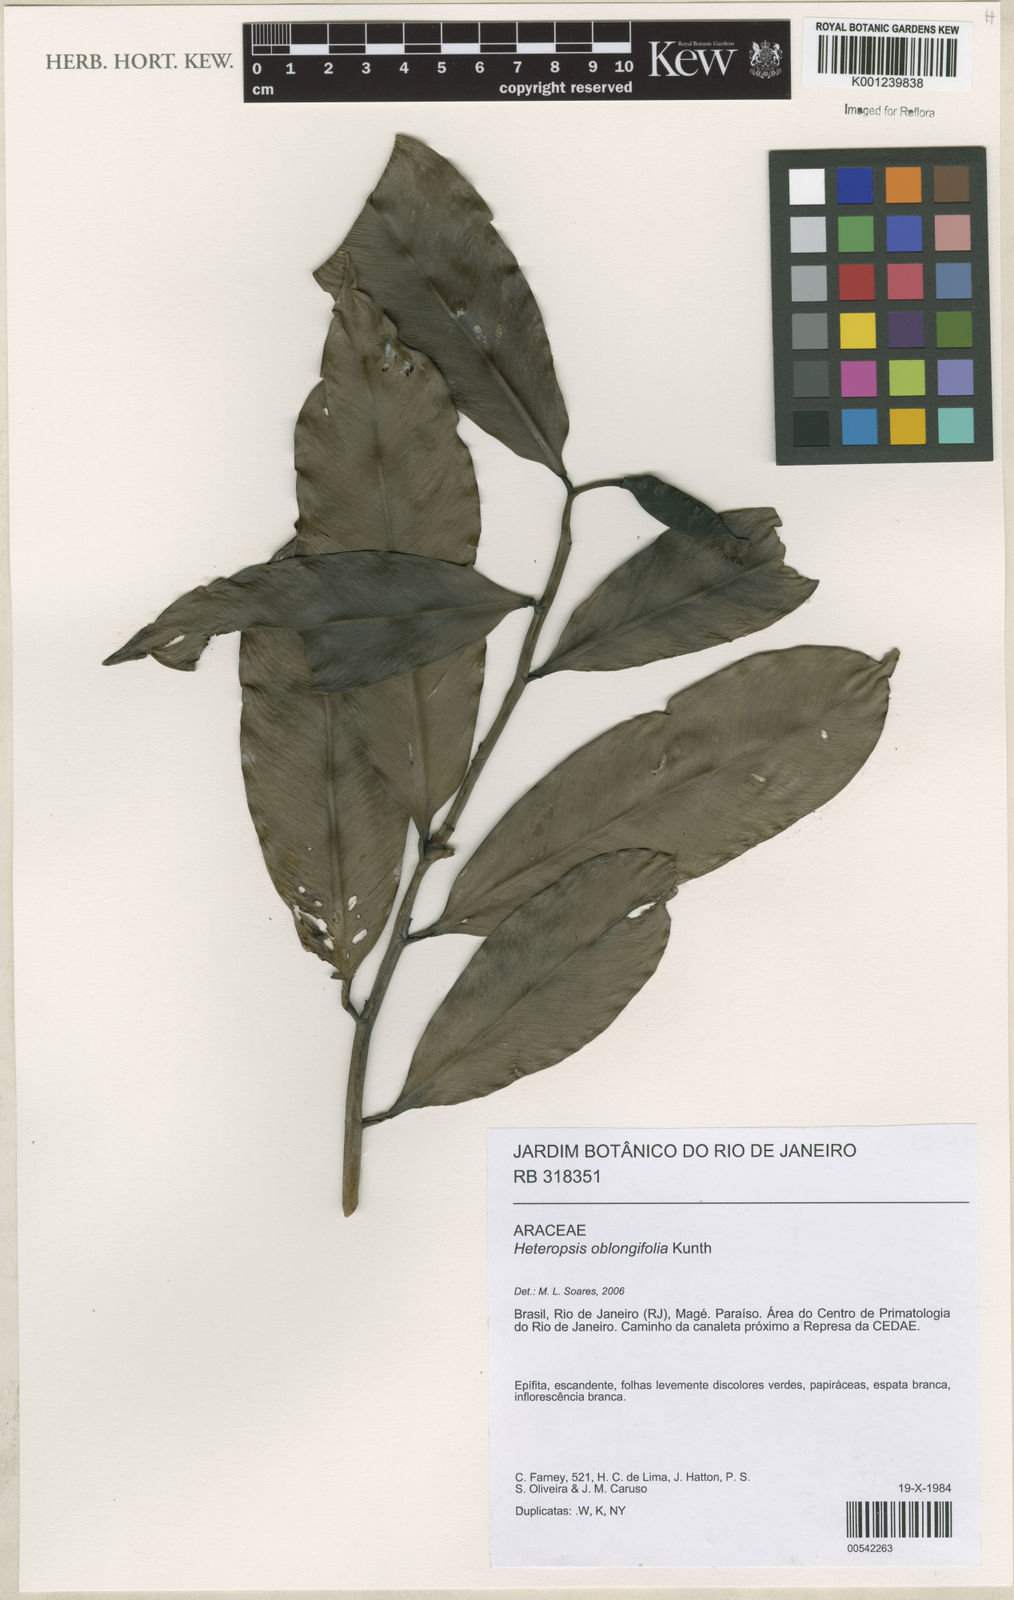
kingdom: Plantae
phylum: Tracheophyta
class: Liliopsida
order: Alismatales
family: Araceae
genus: Heteropsis
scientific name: Heteropsis oblongifolia
